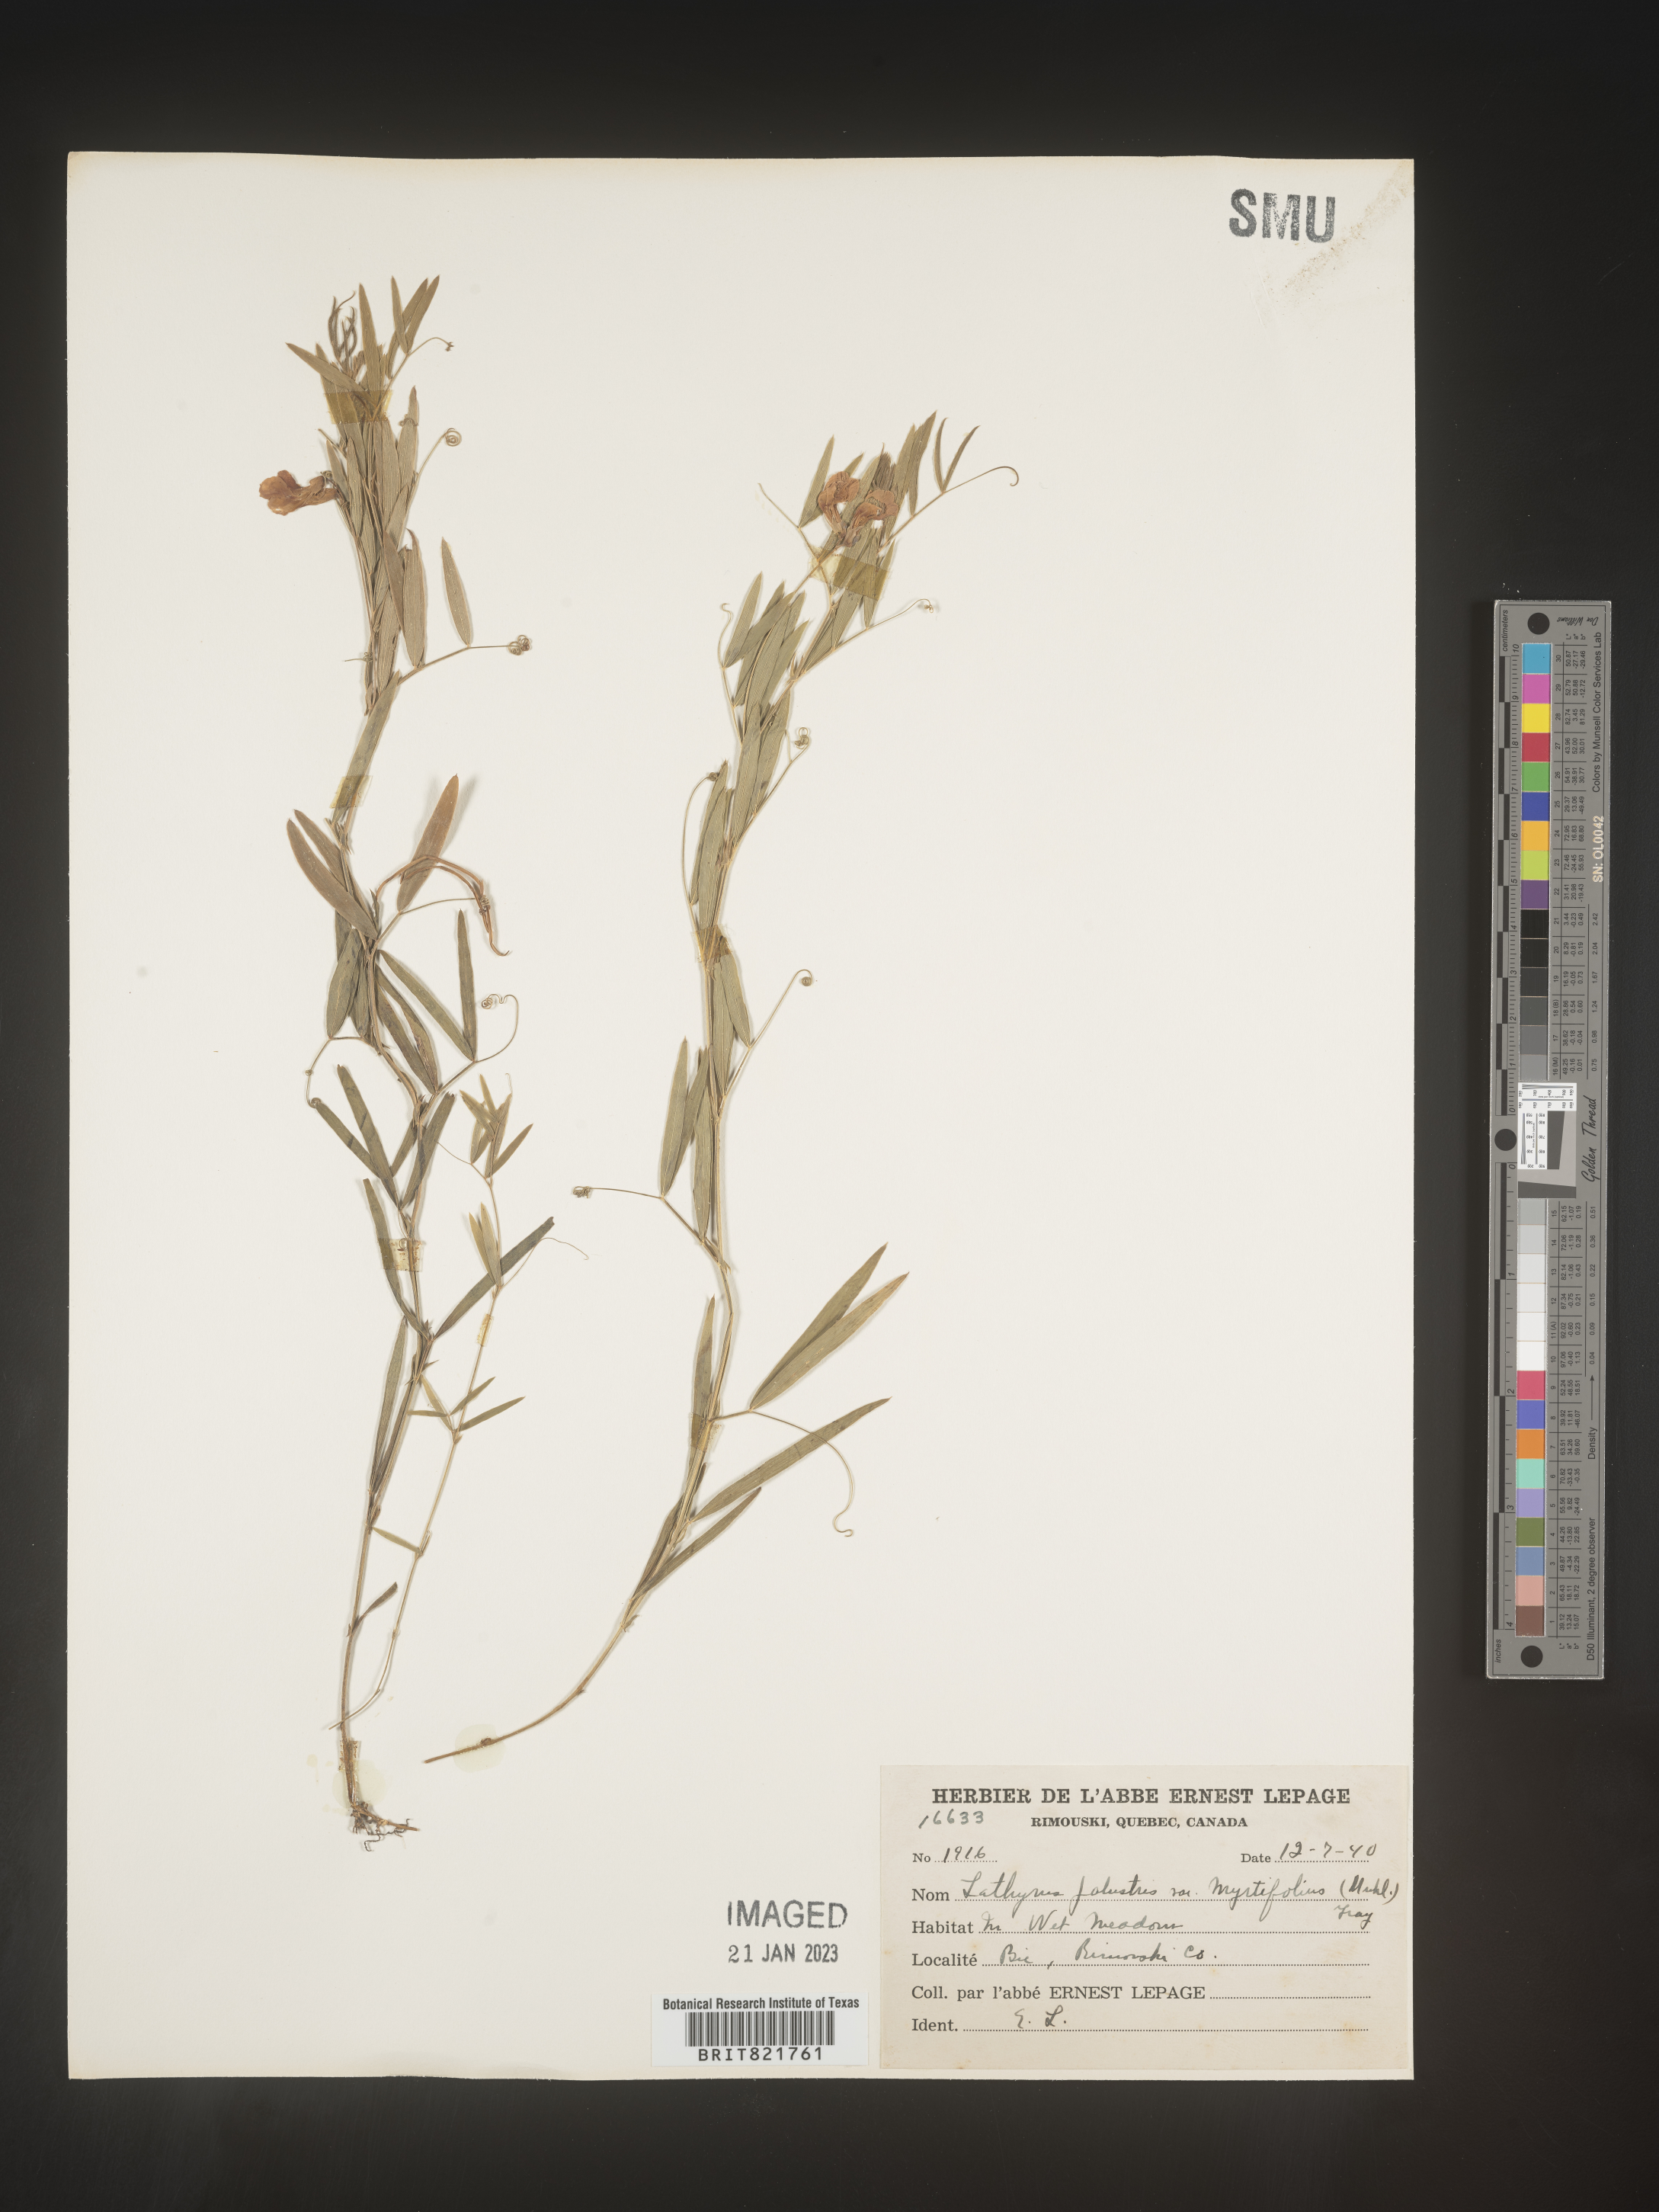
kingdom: Plantae
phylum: Tracheophyta
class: Magnoliopsida
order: Fabales
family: Fabaceae
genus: Lathyrus
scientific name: Lathyrus palustris
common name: Marsh pea
